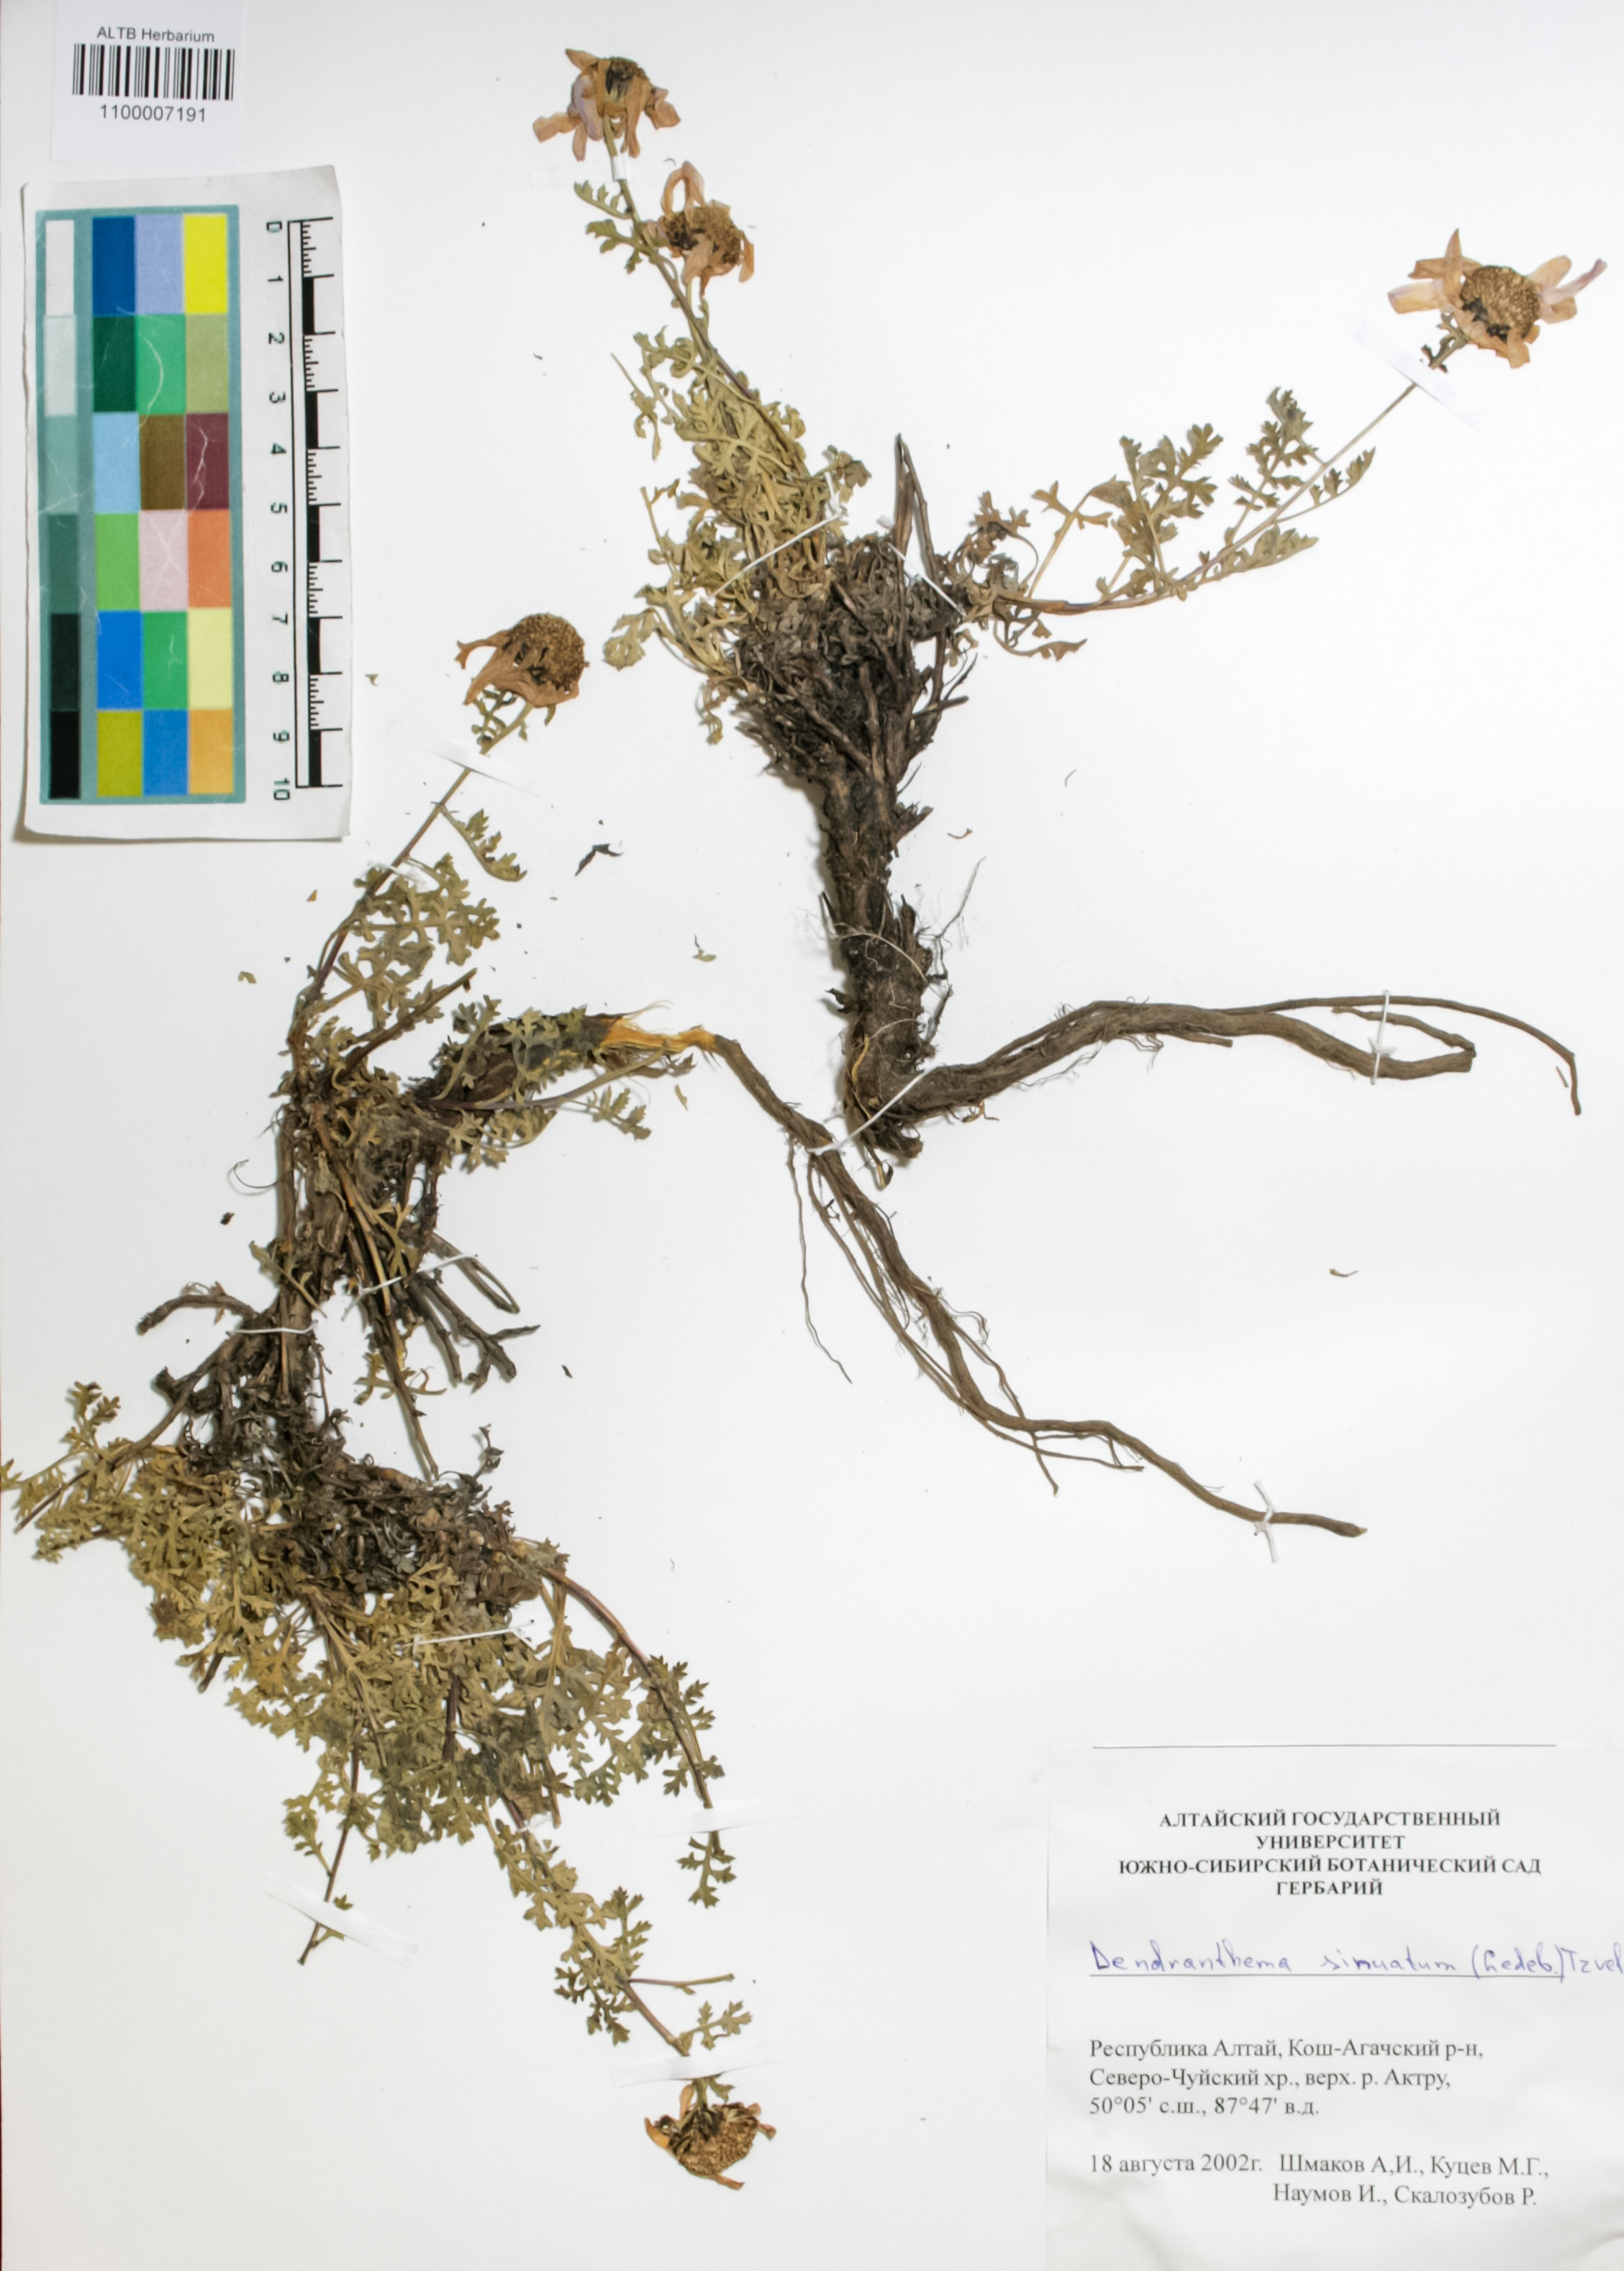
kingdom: Plantae
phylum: Tracheophyta
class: Magnoliopsida
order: Asterales
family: Asteraceae
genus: Chrysanthemum
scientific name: Chrysanthemum sinuatum
